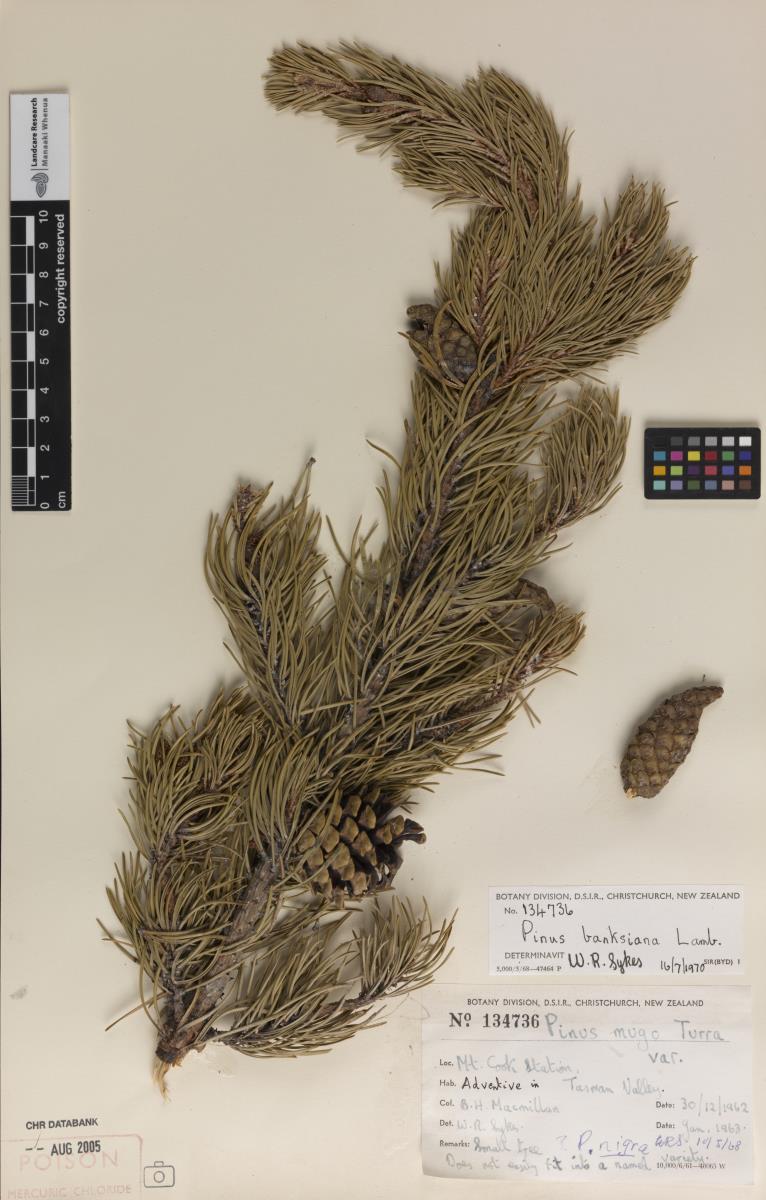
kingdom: Plantae
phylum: Tracheophyta
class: Pinopsida
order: Pinales
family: Pinaceae
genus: Pinus
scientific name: Pinus banksiana
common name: Jack pine
